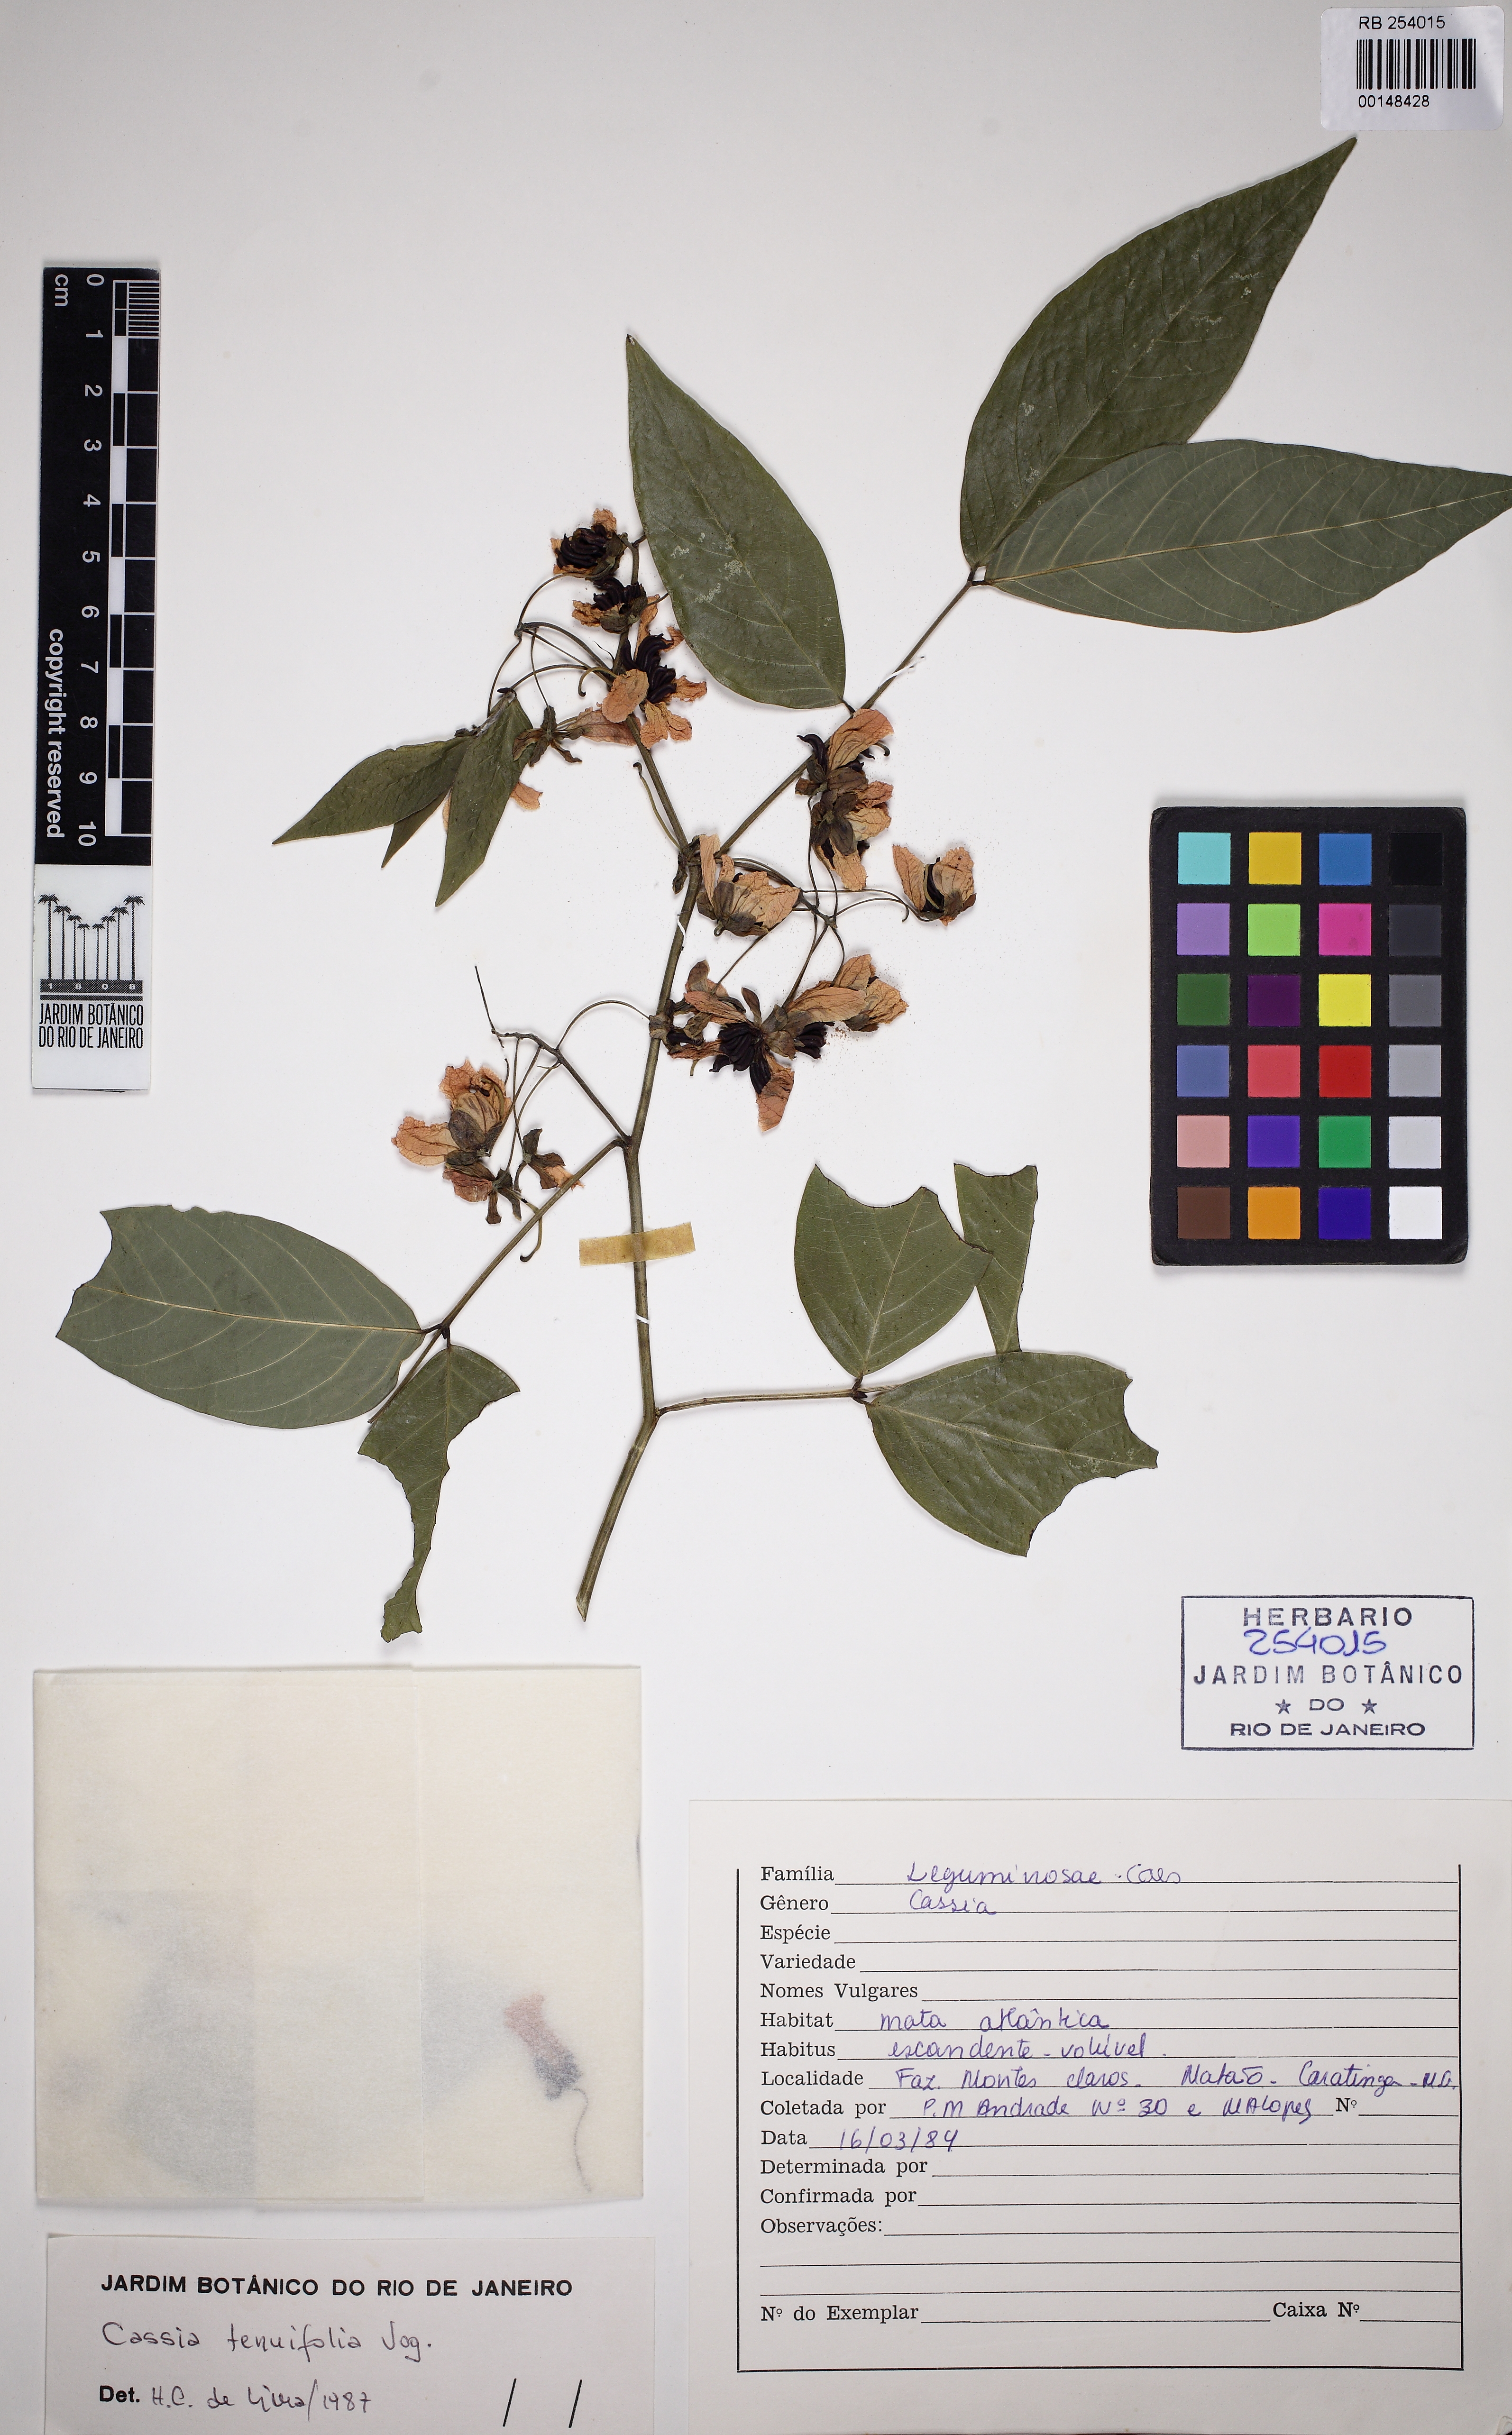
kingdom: Plantae
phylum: Tracheophyta
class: Magnoliopsida
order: Fabales
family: Fabaceae
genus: Senna
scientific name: Senna affinis
